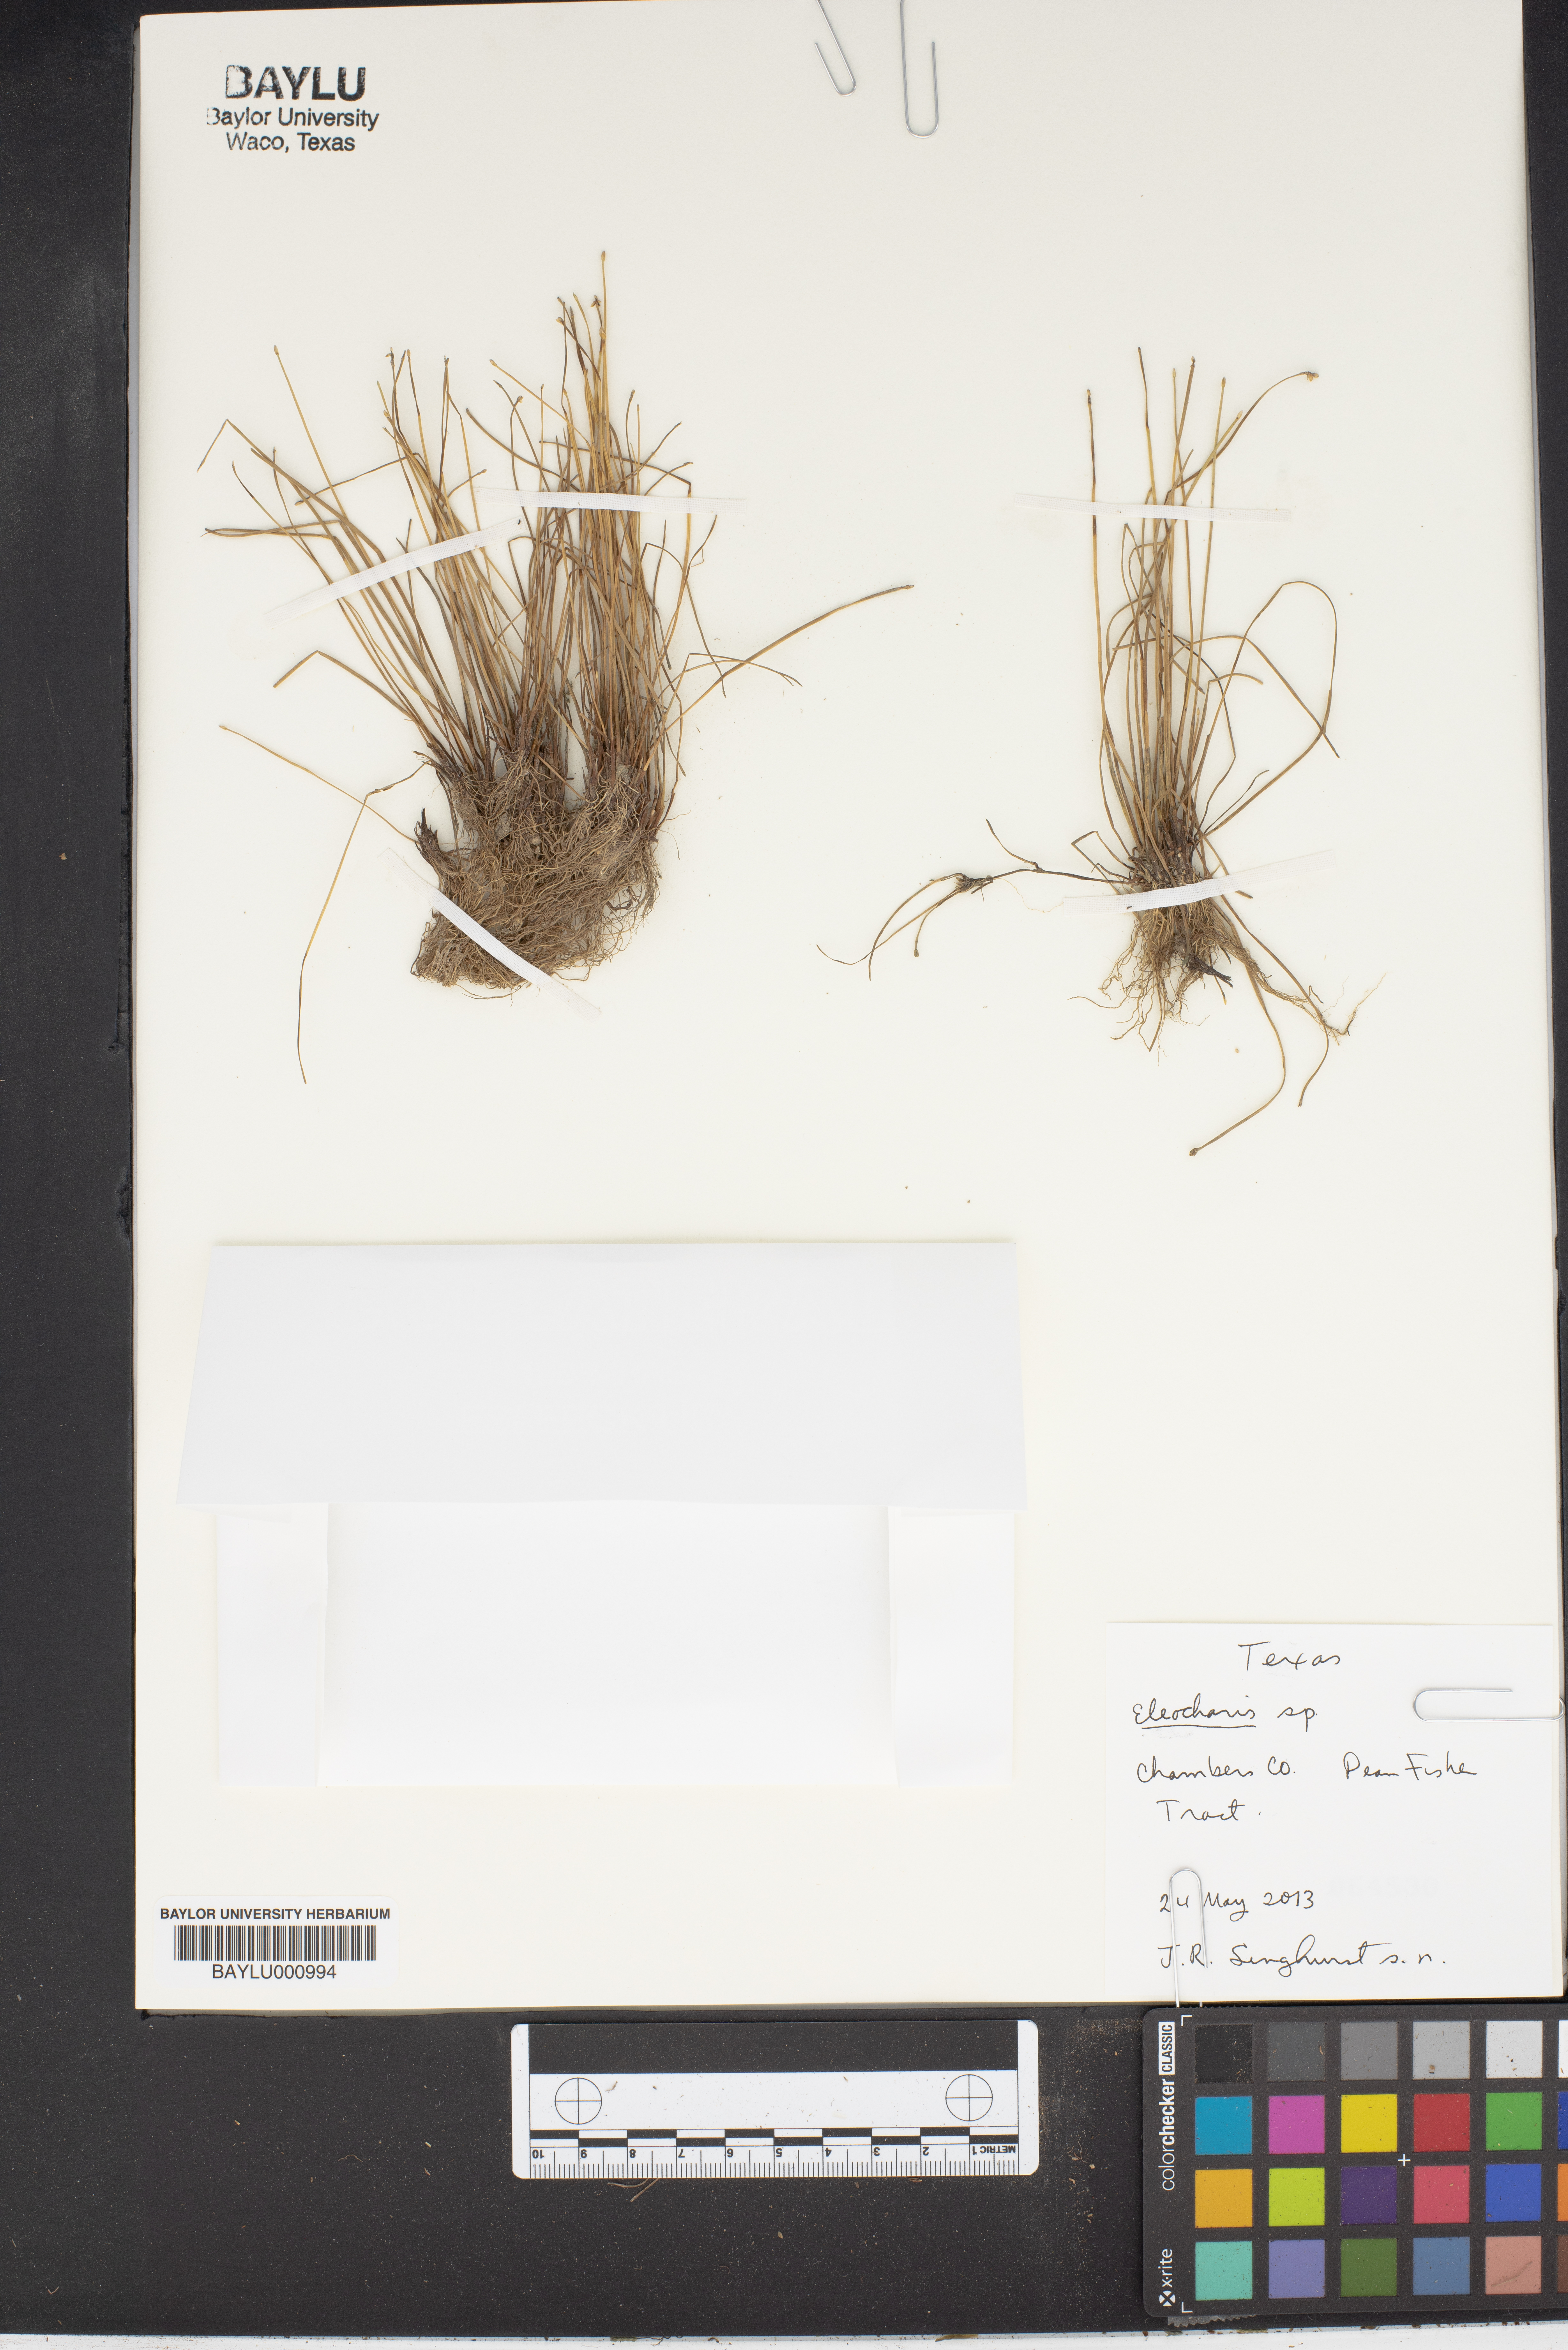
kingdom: Plantae
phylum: Tracheophyta
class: Liliopsida
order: Poales
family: Cyperaceae
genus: Eleocharis
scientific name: Eleocharis
